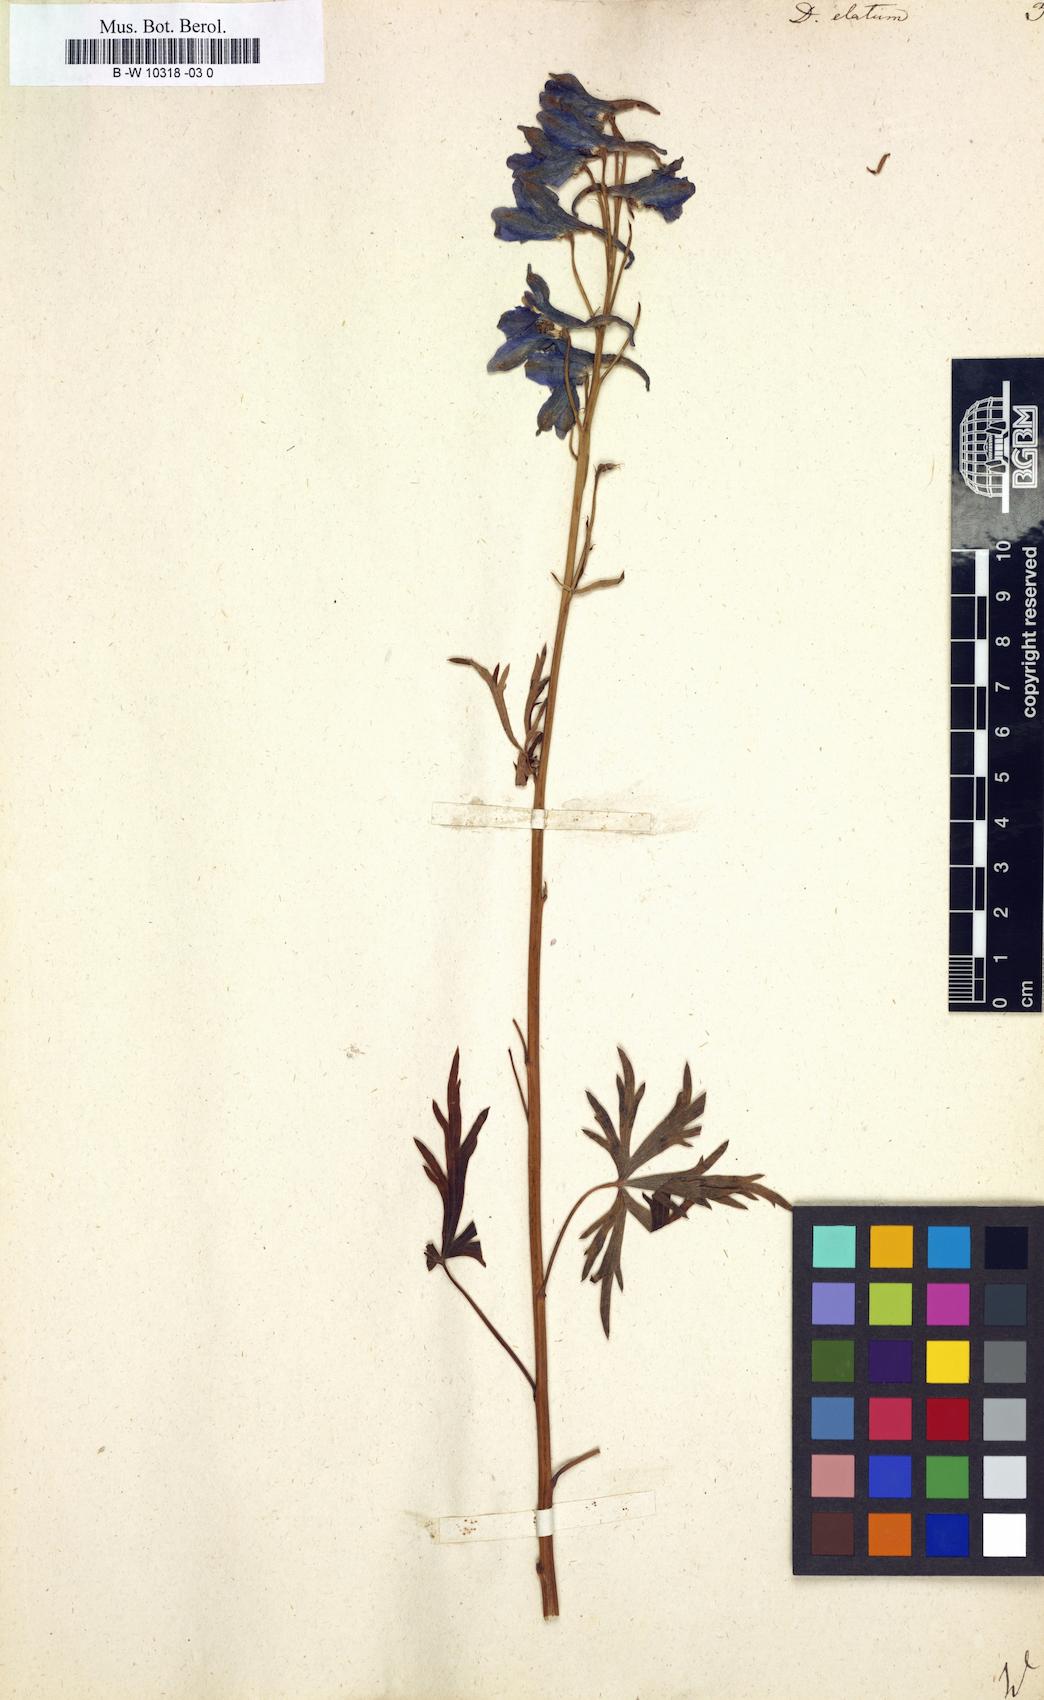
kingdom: Plantae
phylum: Tracheophyta
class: Magnoliopsida
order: Ranunculales
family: Ranunculaceae
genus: Delphinium
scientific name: Delphinium elatum
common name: Candle larkspur
